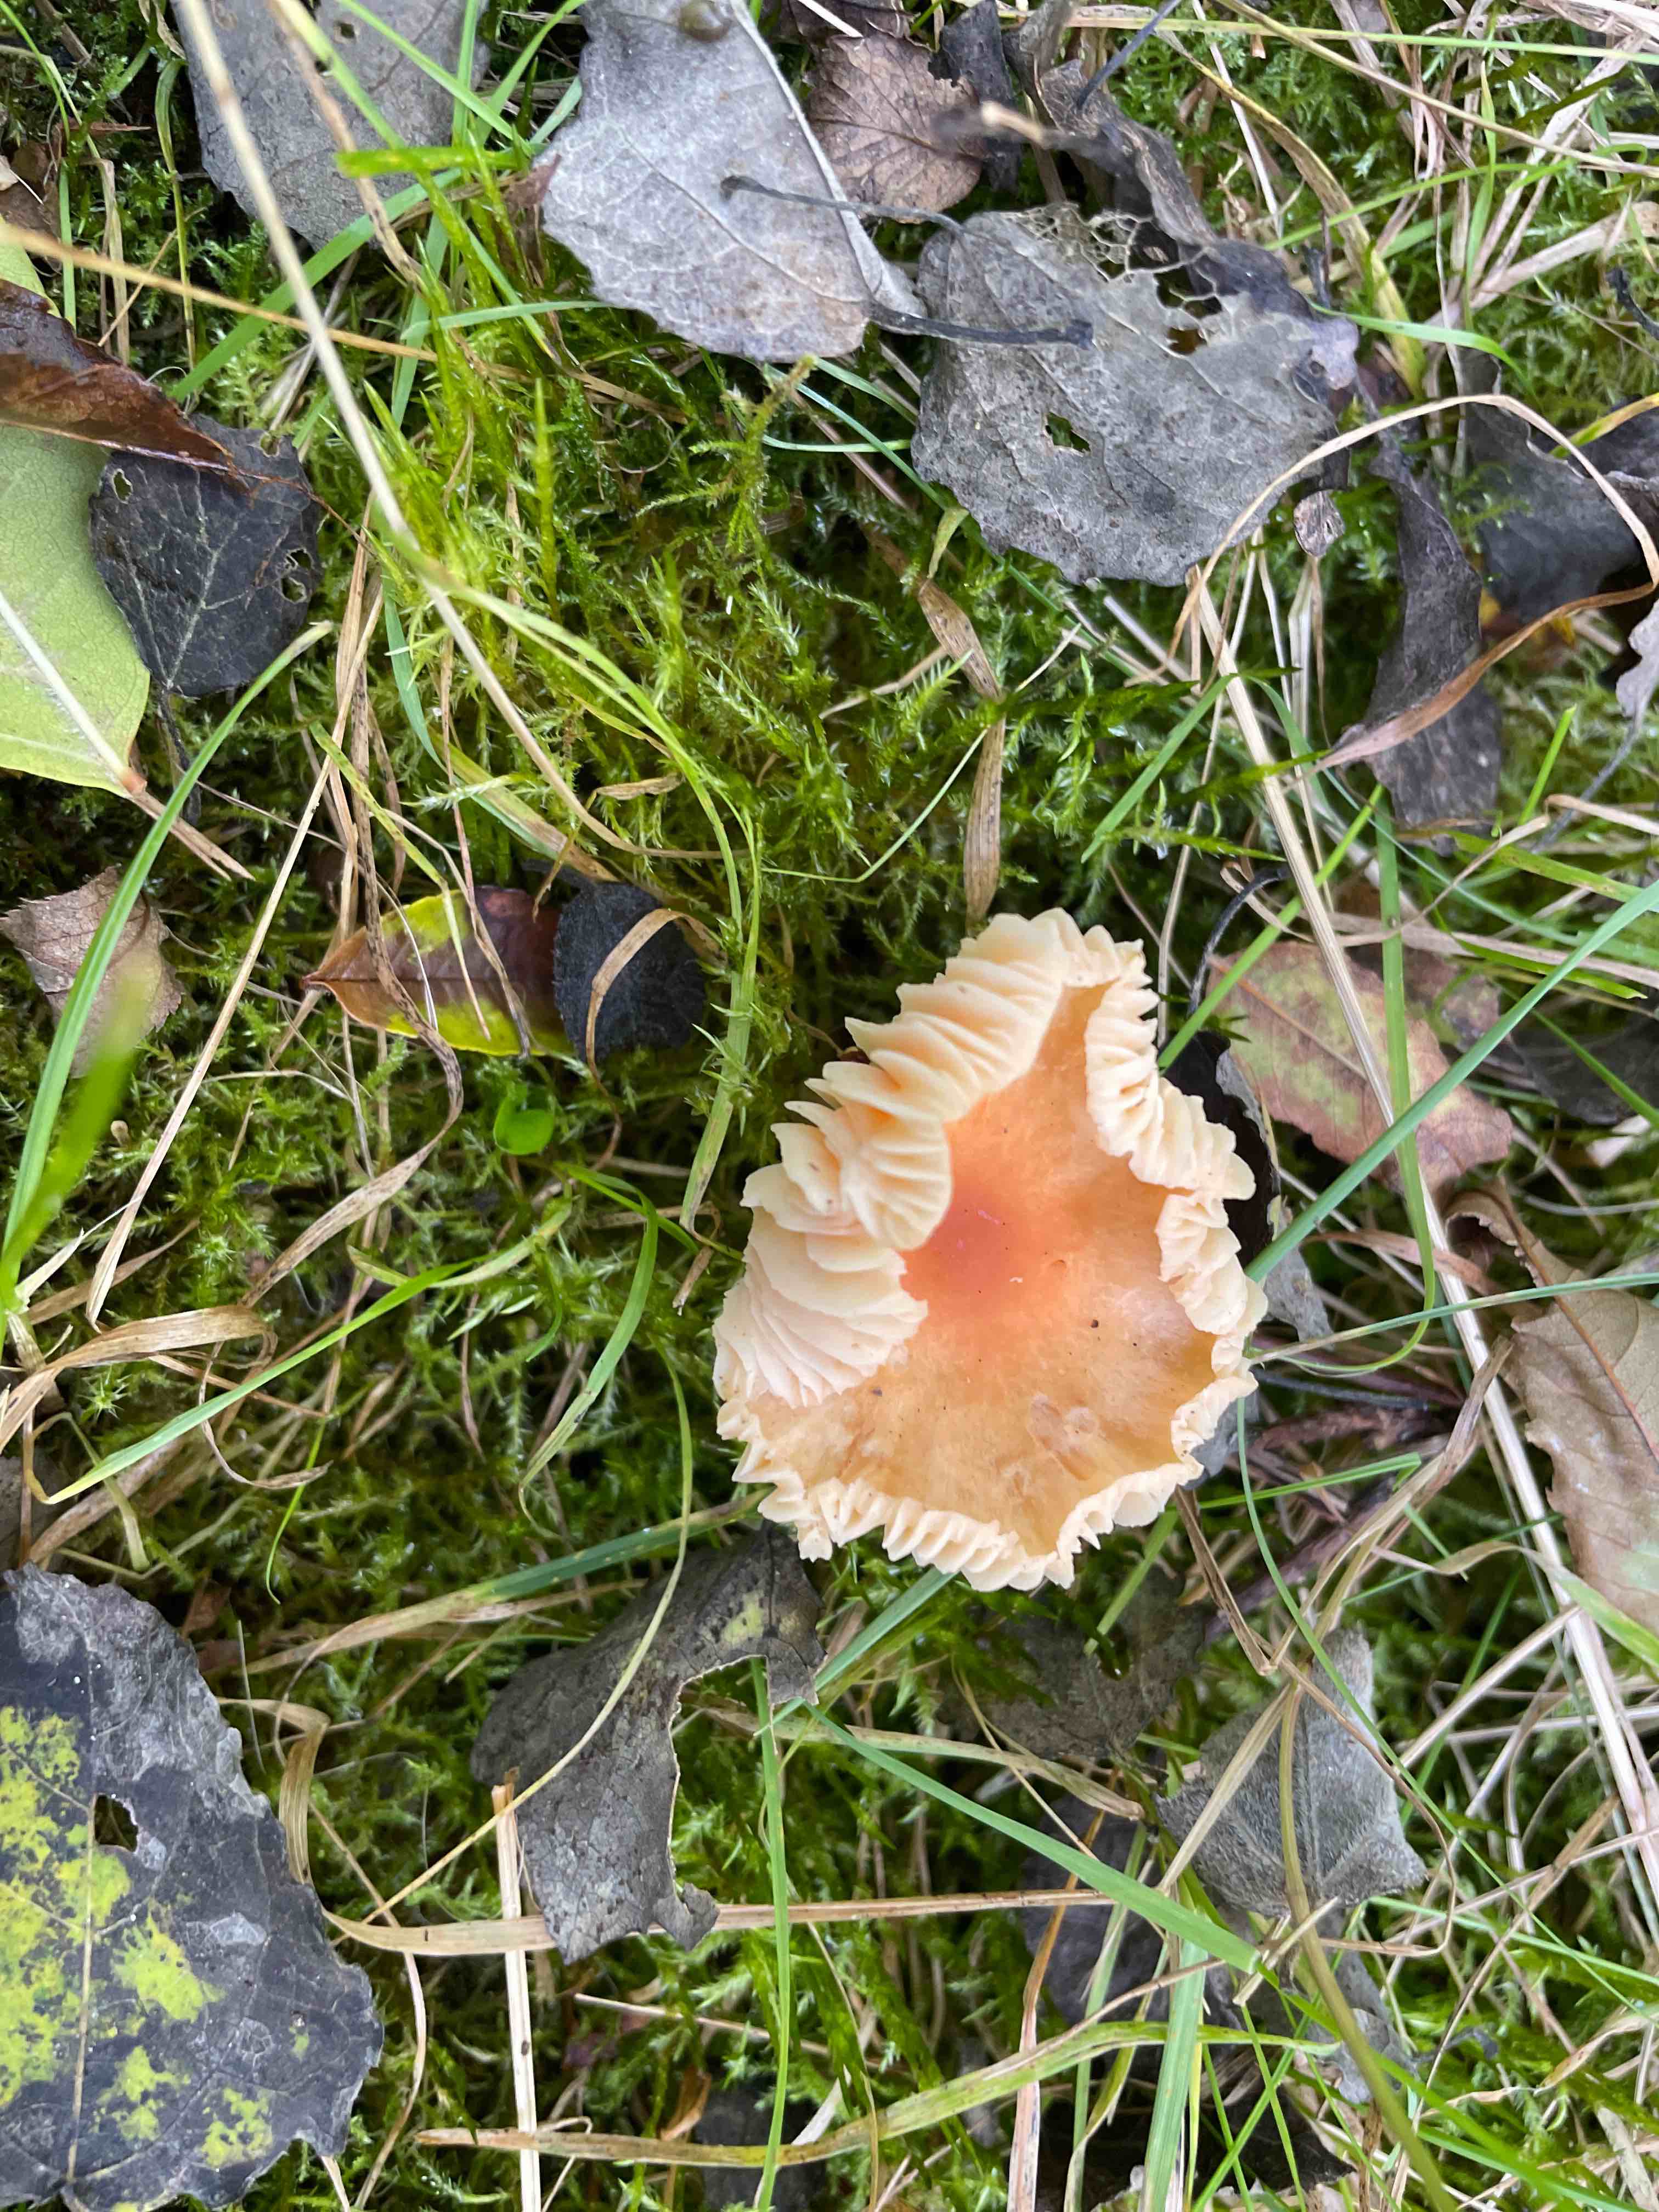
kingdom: Fungi
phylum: Basidiomycota
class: Agaricomycetes
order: Agaricales
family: Hygrophoraceae
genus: Cuphophyllus
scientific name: Cuphophyllus pratensis
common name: eng-vokshat
